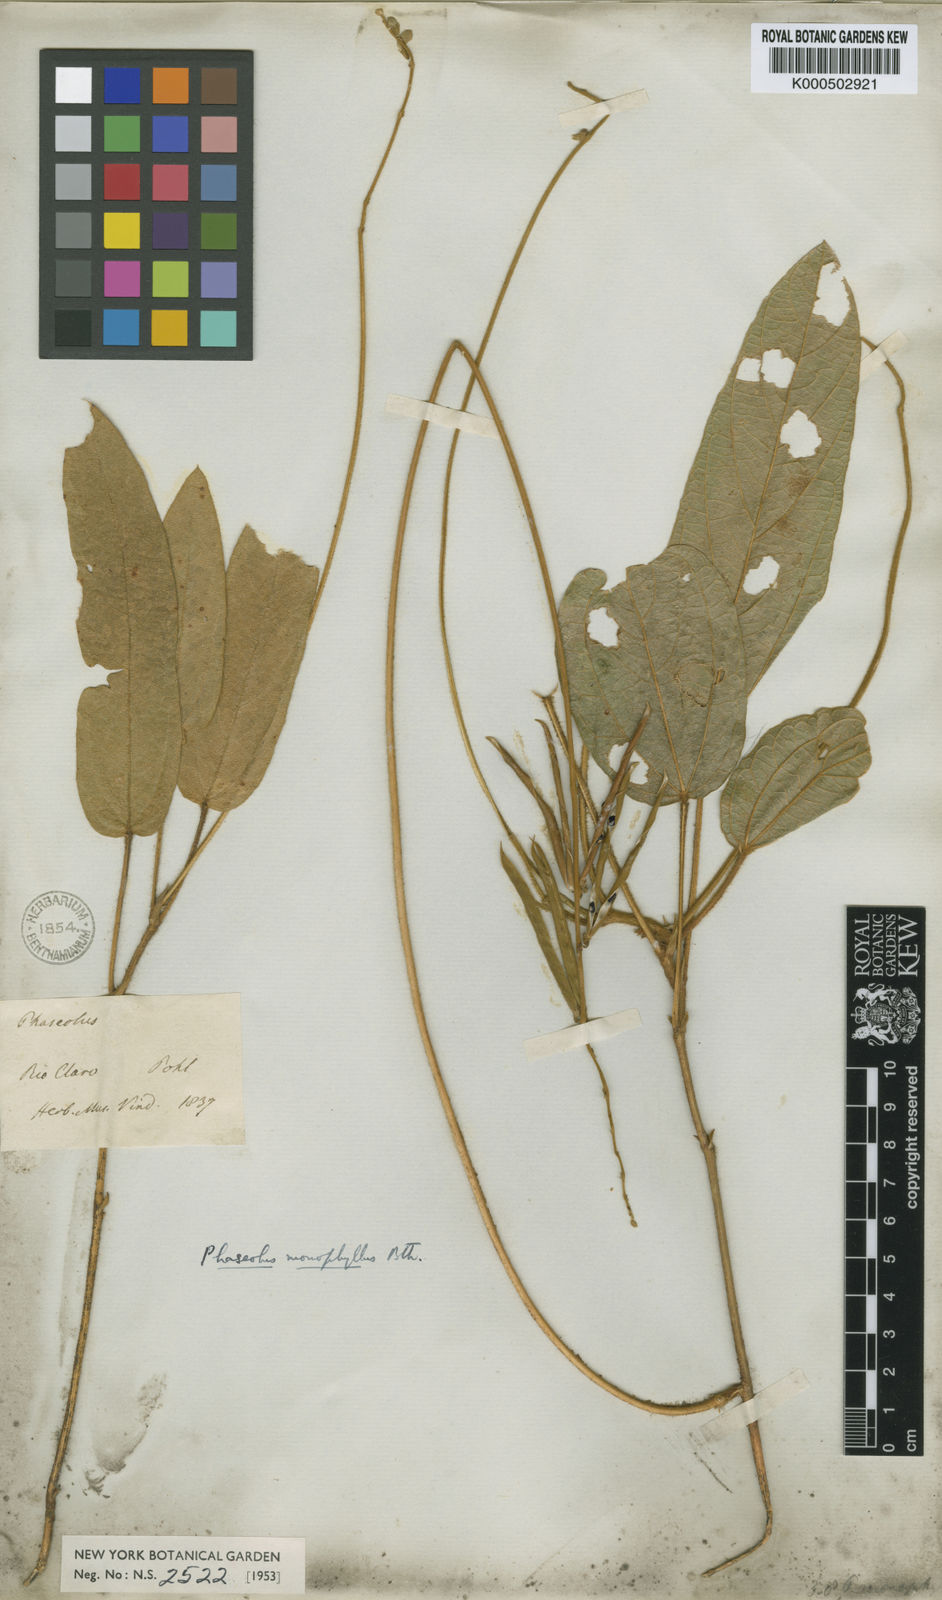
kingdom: Plantae
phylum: Tracheophyta
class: Magnoliopsida
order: Fabales
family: Fabaceae
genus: Macroptilium
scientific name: Macroptilium
